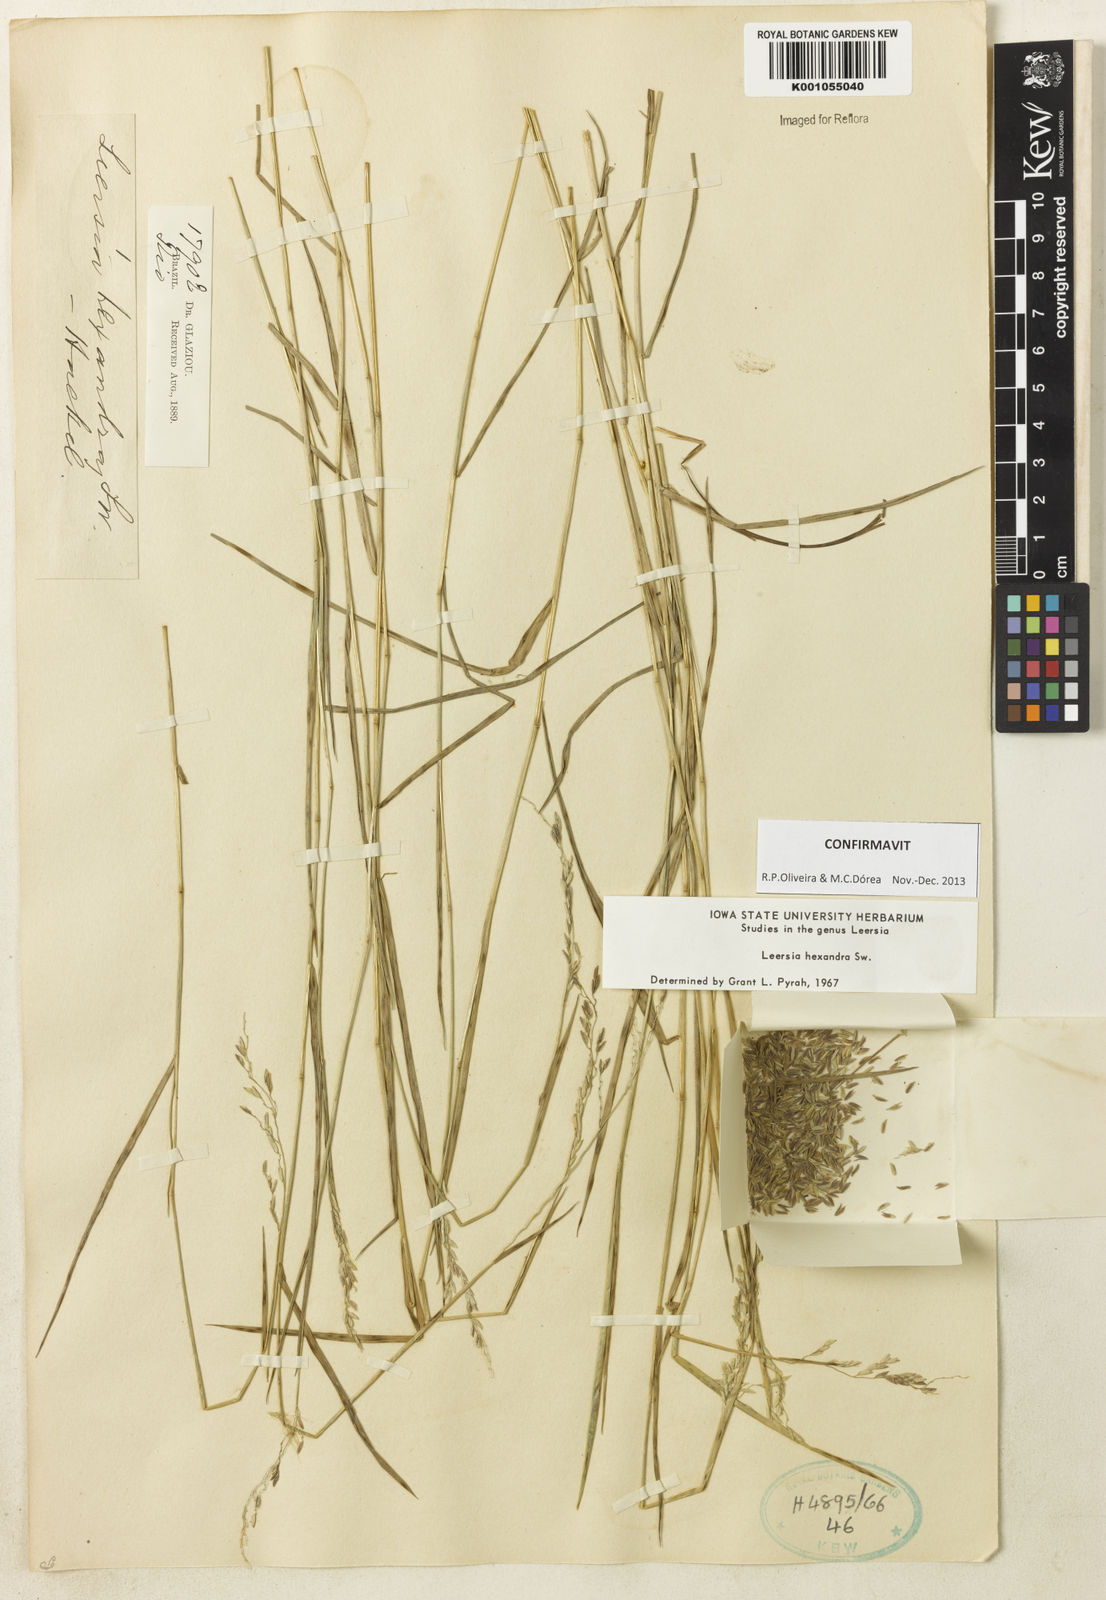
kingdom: Plantae
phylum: Tracheophyta
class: Liliopsida
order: Poales
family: Poaceae
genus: Leersia
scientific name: Leersia hexandra
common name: Southern cut grass
